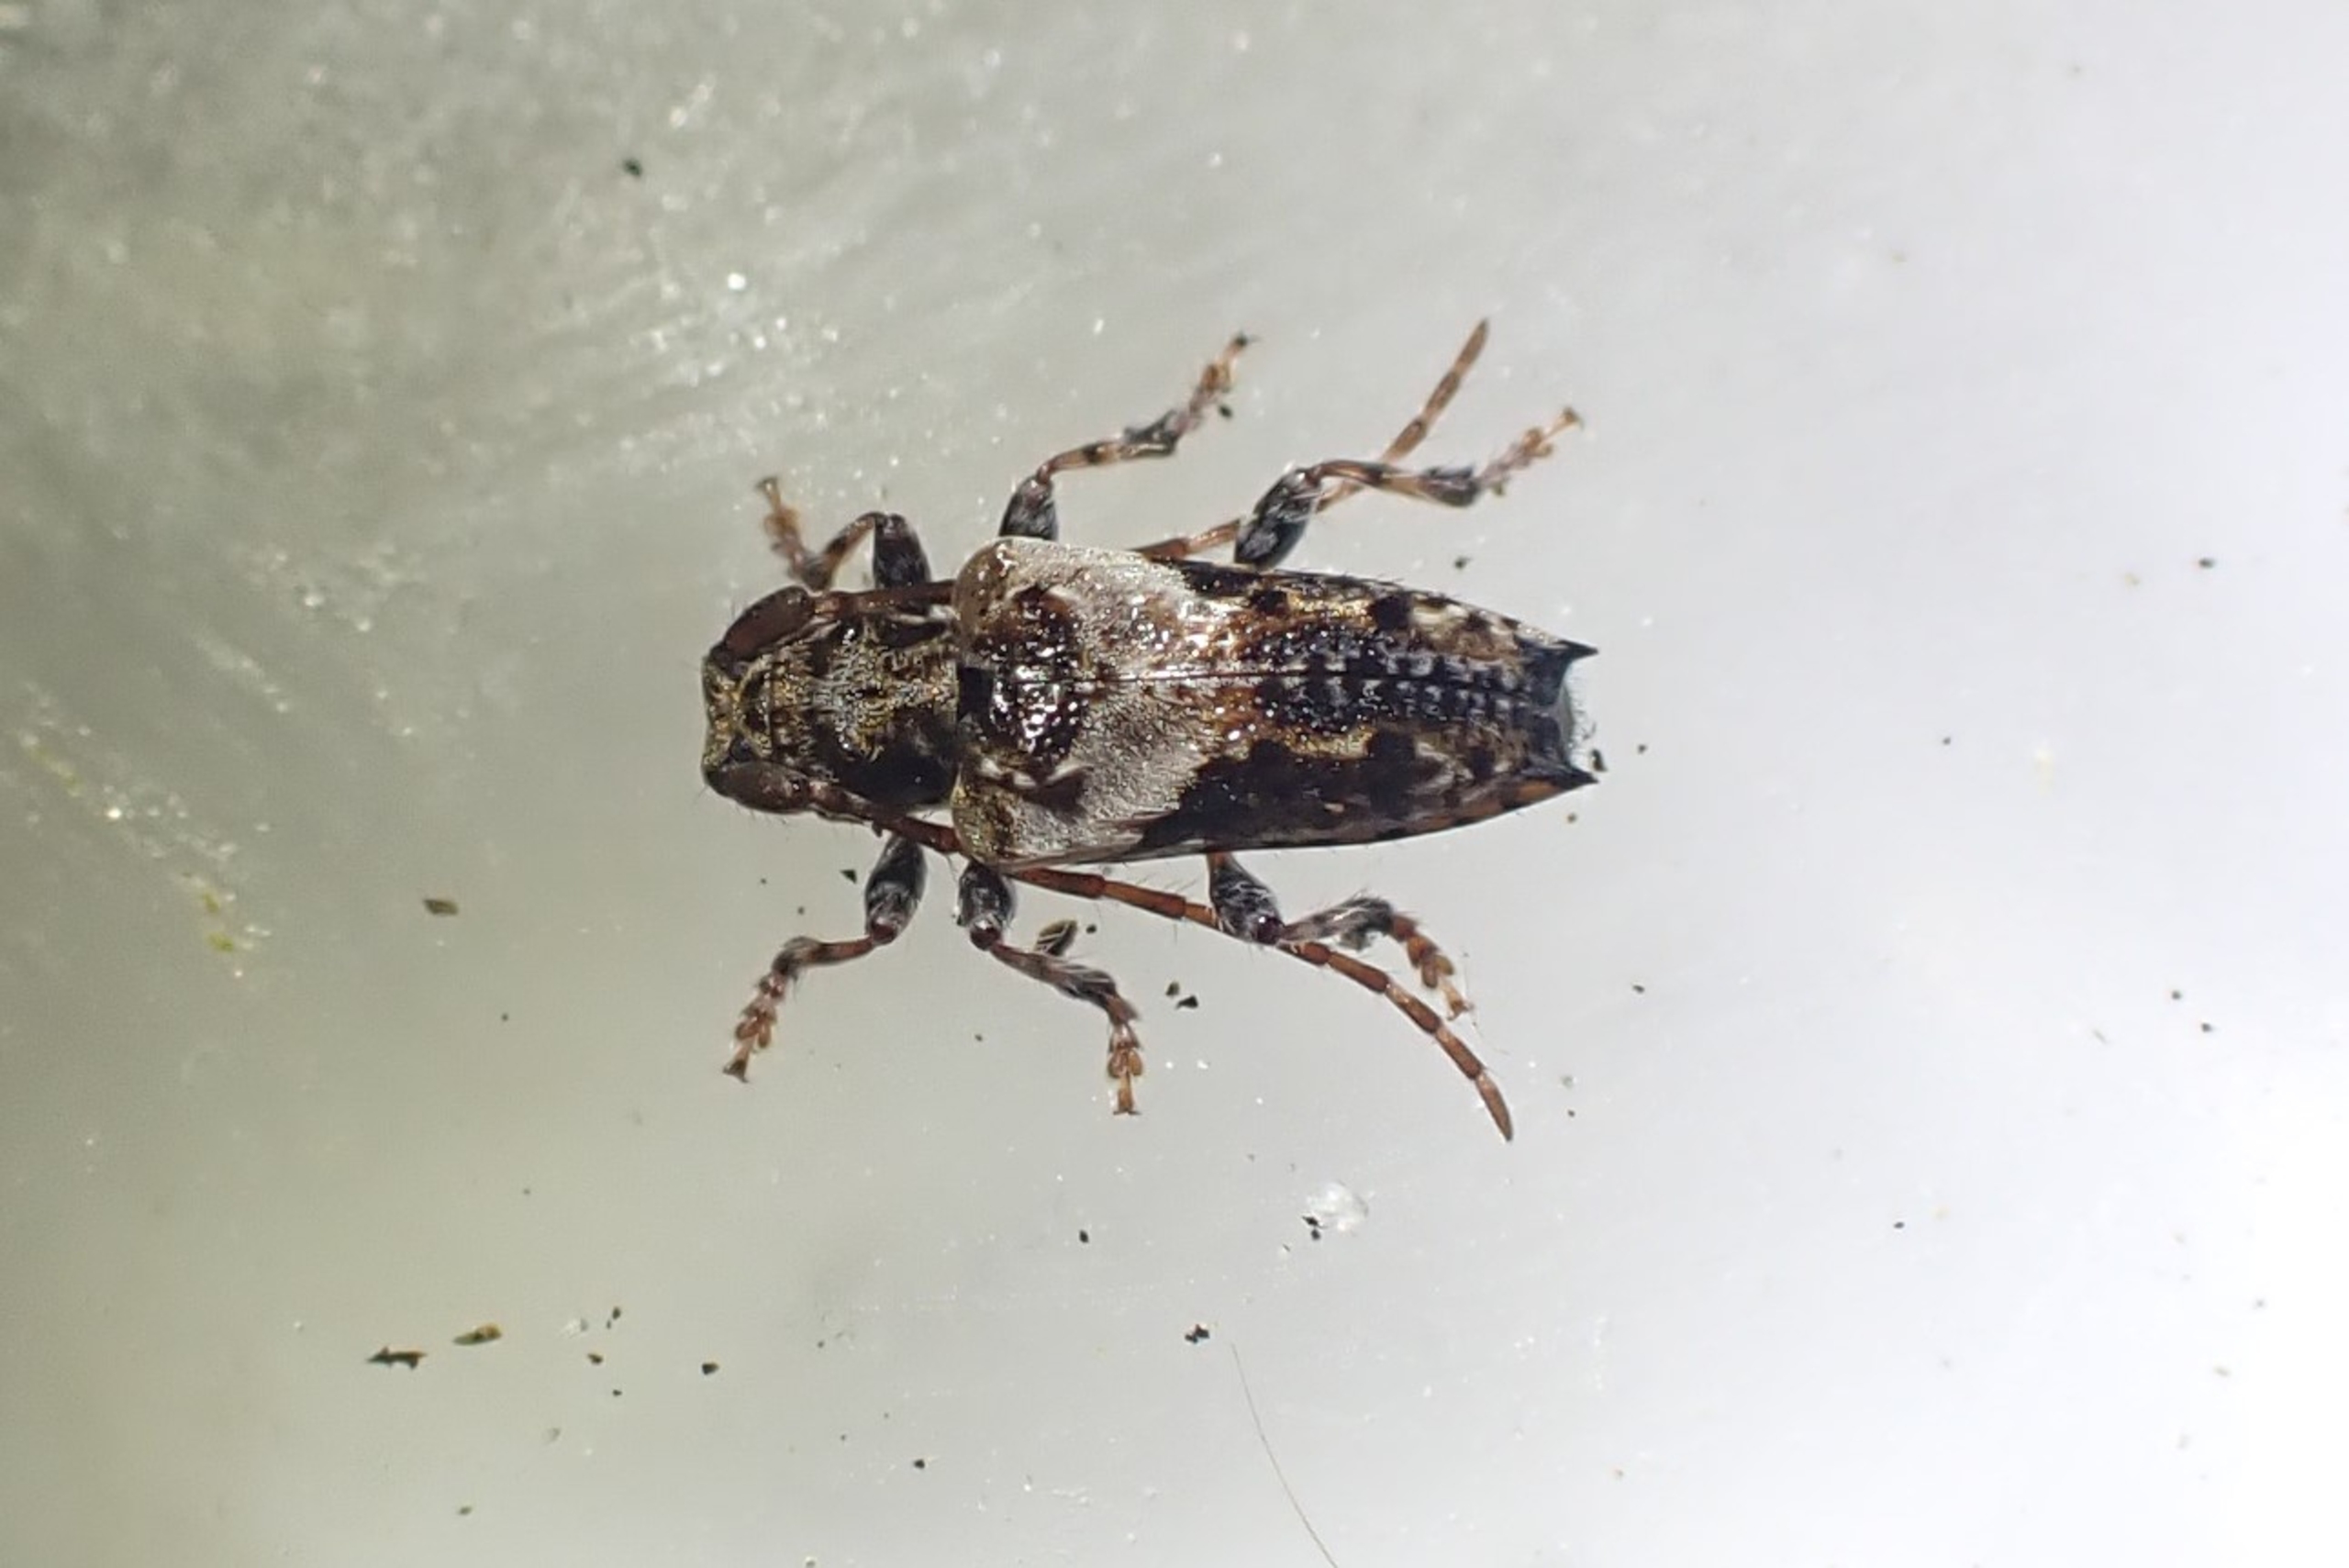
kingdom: Animalia
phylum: Arthropoda
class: Insecta
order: Coleoptera
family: Cerambycidae
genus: Pogonocherus
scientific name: Pogonocherus hispidus
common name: Løvgråbuk
